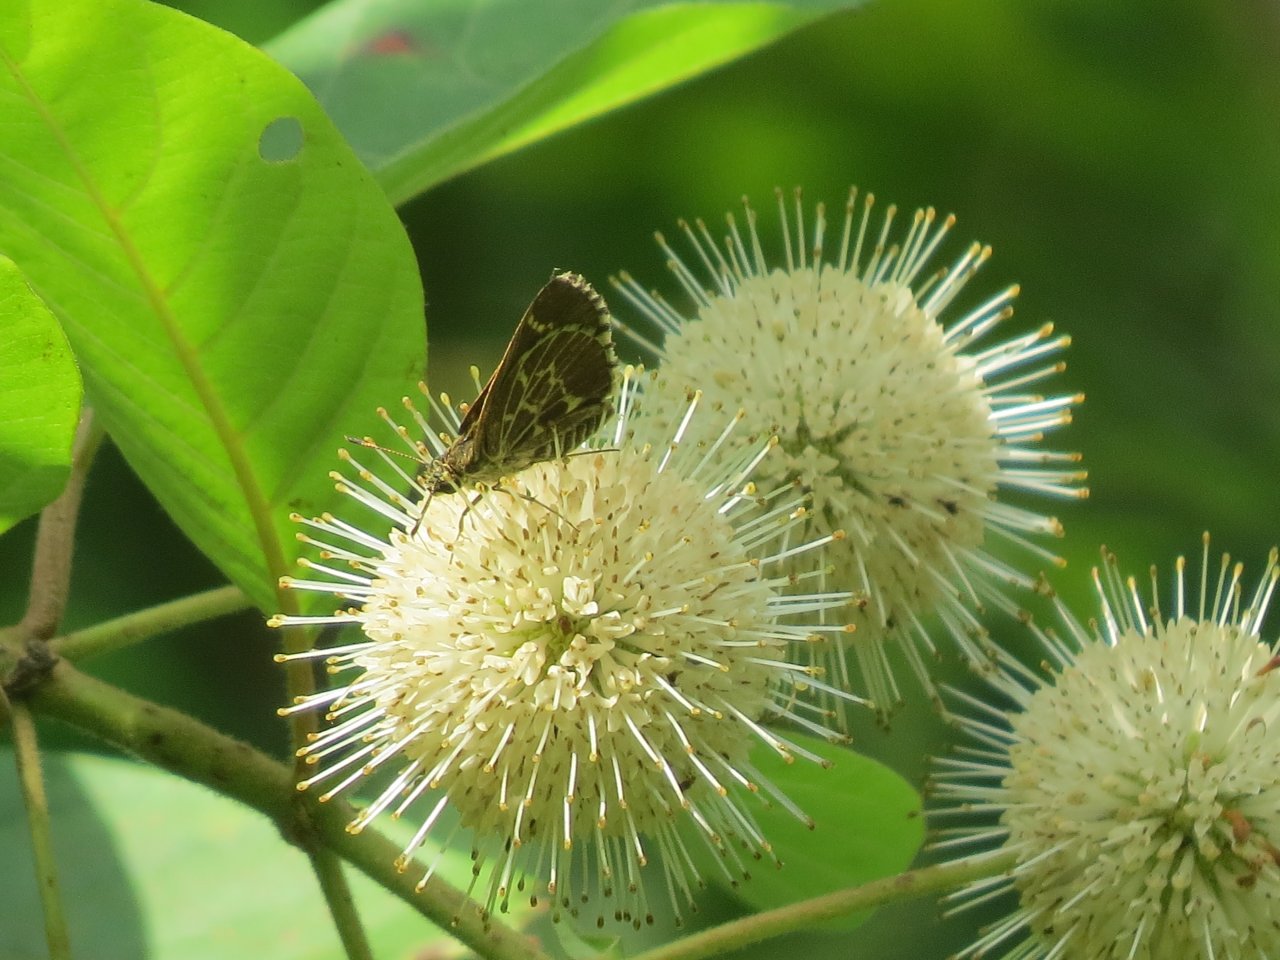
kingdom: Animalia
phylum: Arthropoda
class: Insecta
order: Lepidoptera
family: Hesperiidae
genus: Mastor
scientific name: Mastor aesculapius
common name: Lace-winged Roadside-Skipper
